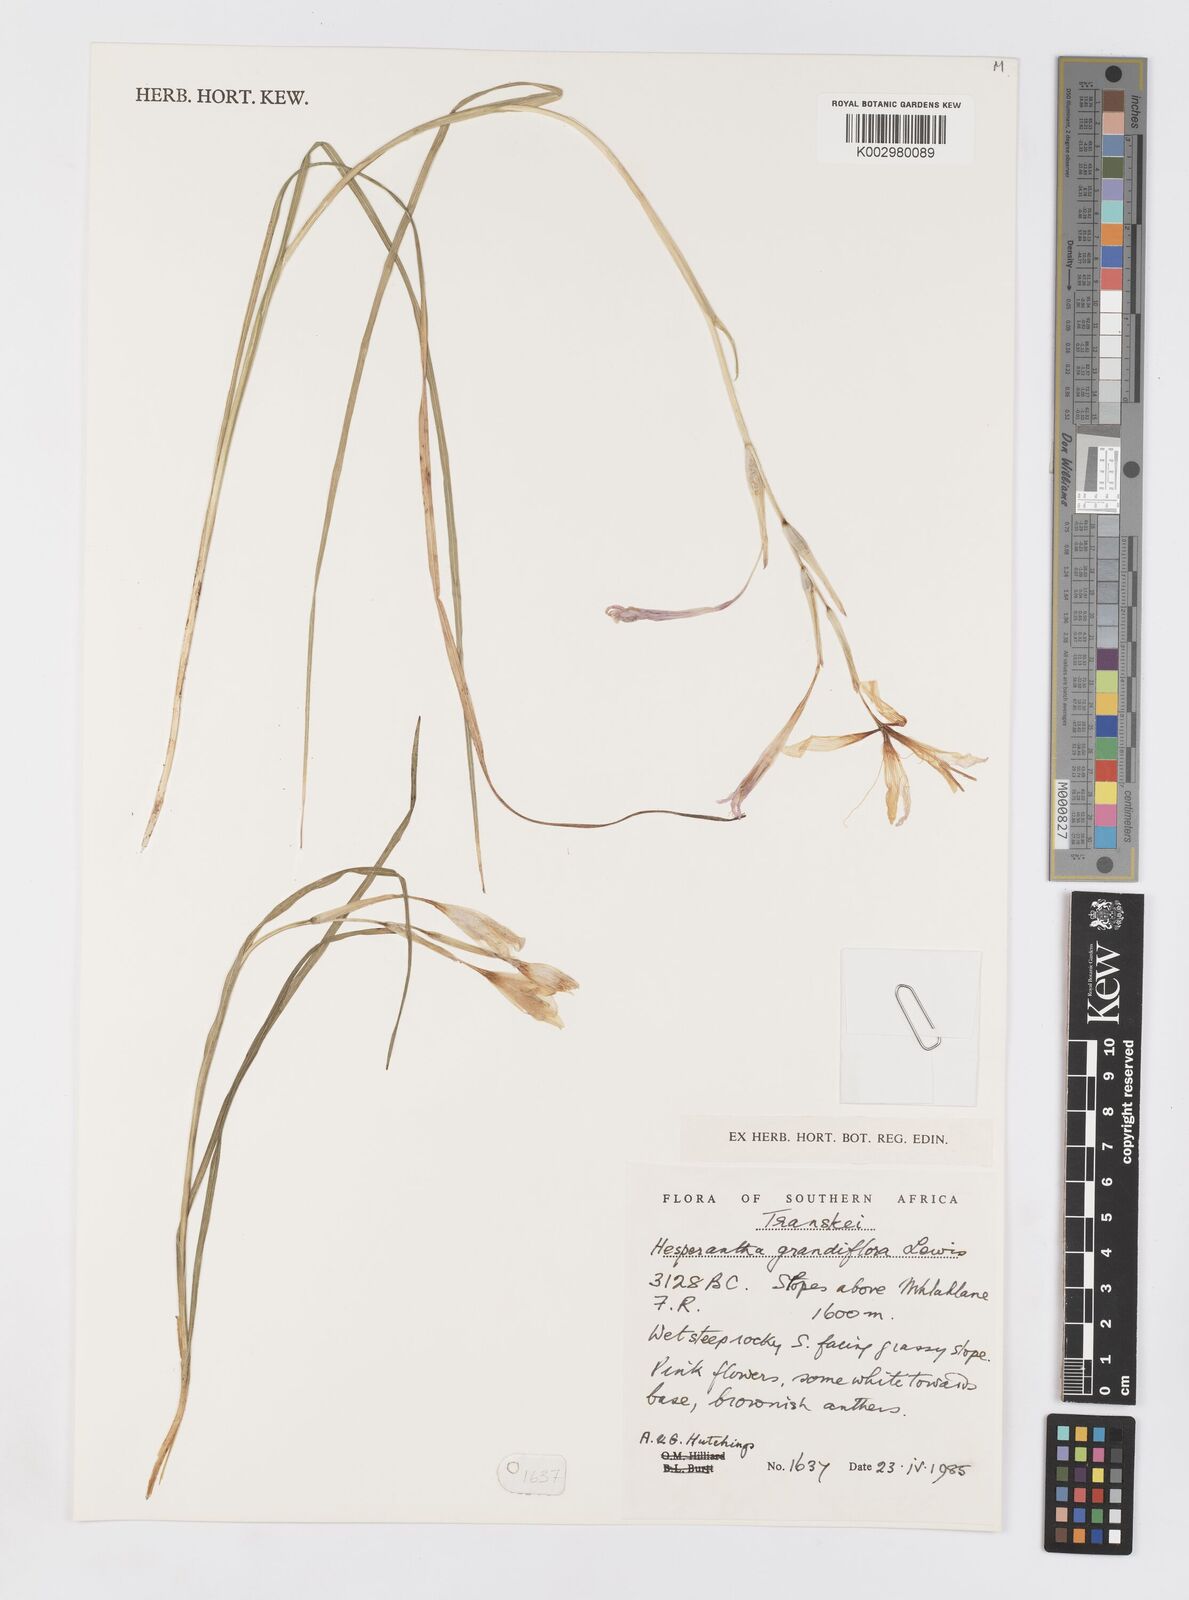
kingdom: Plantae
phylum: Tracheophyta
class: Liliopsida
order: Asparagales
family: Iridaceae
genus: Hesperantha
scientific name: Hesperantha grandiflora
